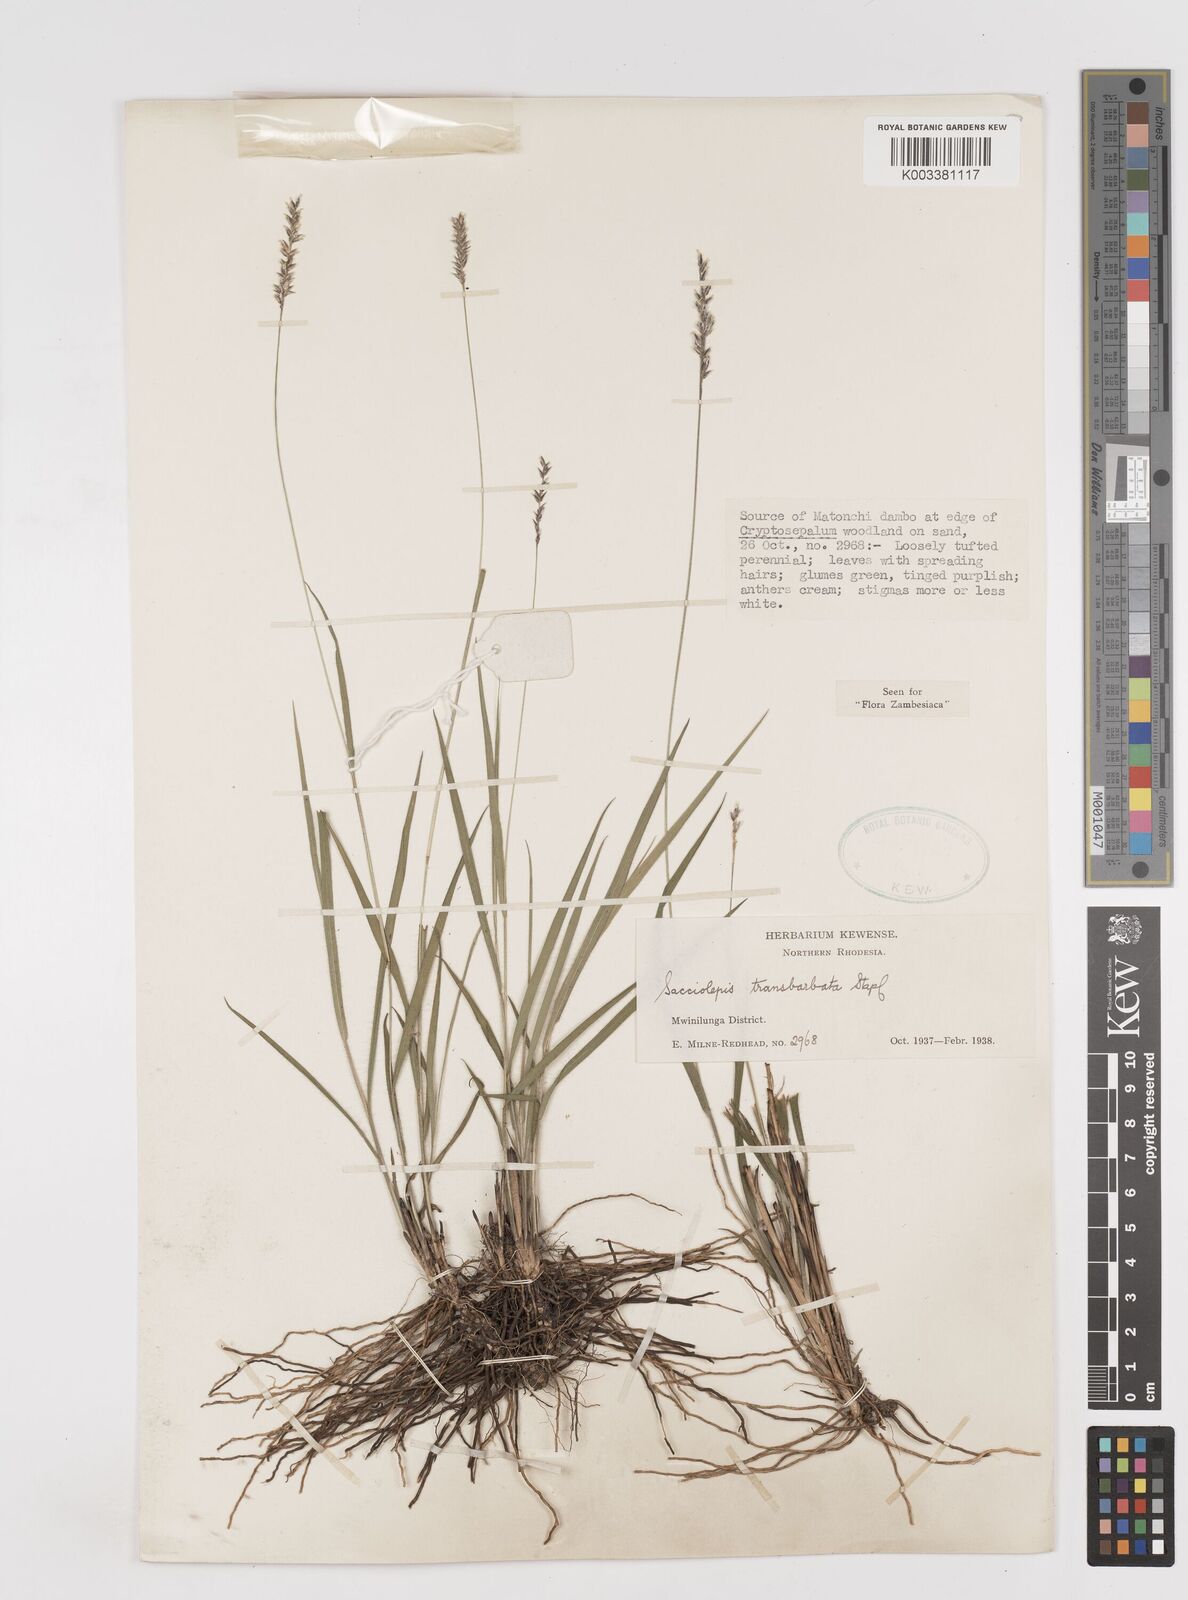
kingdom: Plantae
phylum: Tracheophyta
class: Liliopsida
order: Poales
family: Poaceae
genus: Sacciolepis
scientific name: Sacciolepis transbarbata
